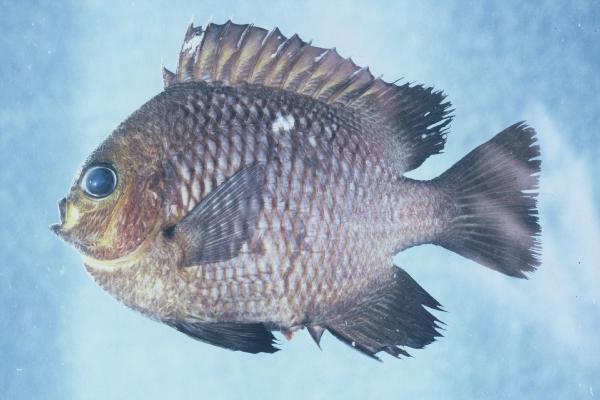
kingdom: Animalia
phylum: Chordata
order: Perciformes
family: Pomacentridae
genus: Dascyllus
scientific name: Dascyllus trimaculatus
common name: Threespot dascyllus
